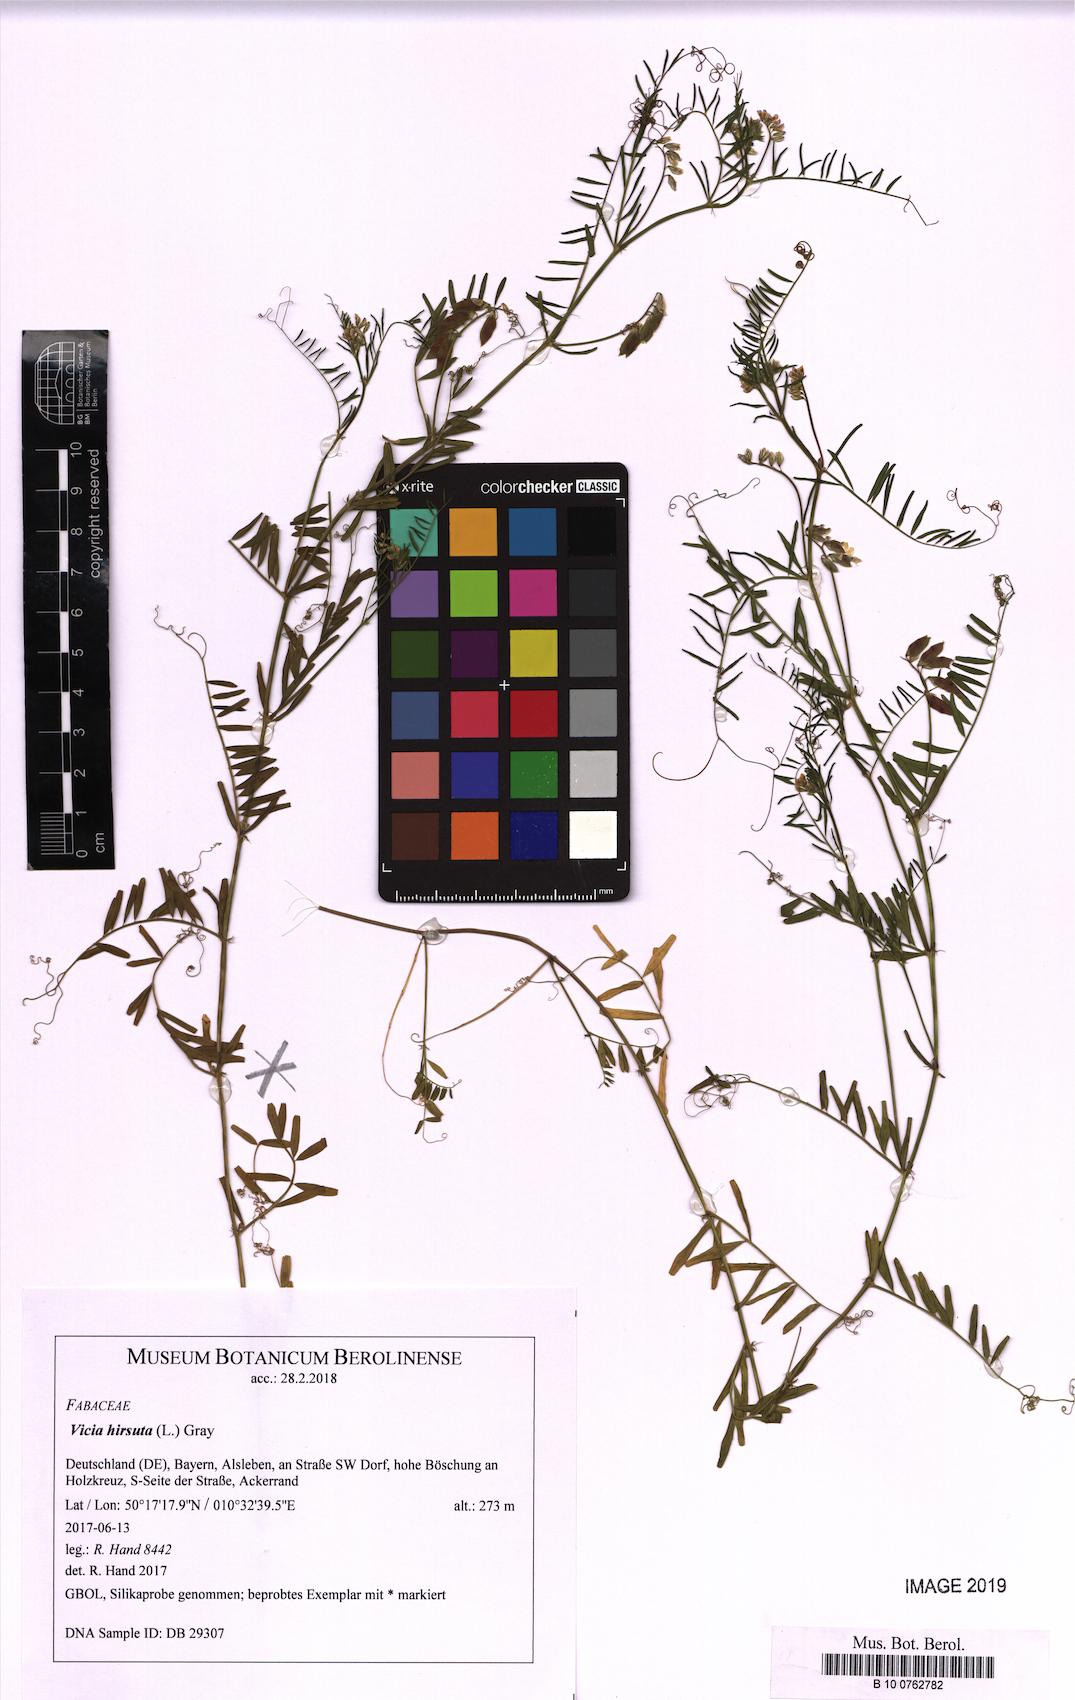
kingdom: Plantae
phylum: Tracheophyta
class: Magnoliopsida
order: Fabales
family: Fabaceae
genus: Vicia
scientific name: Vicia hirsuta
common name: Tiny vetch
